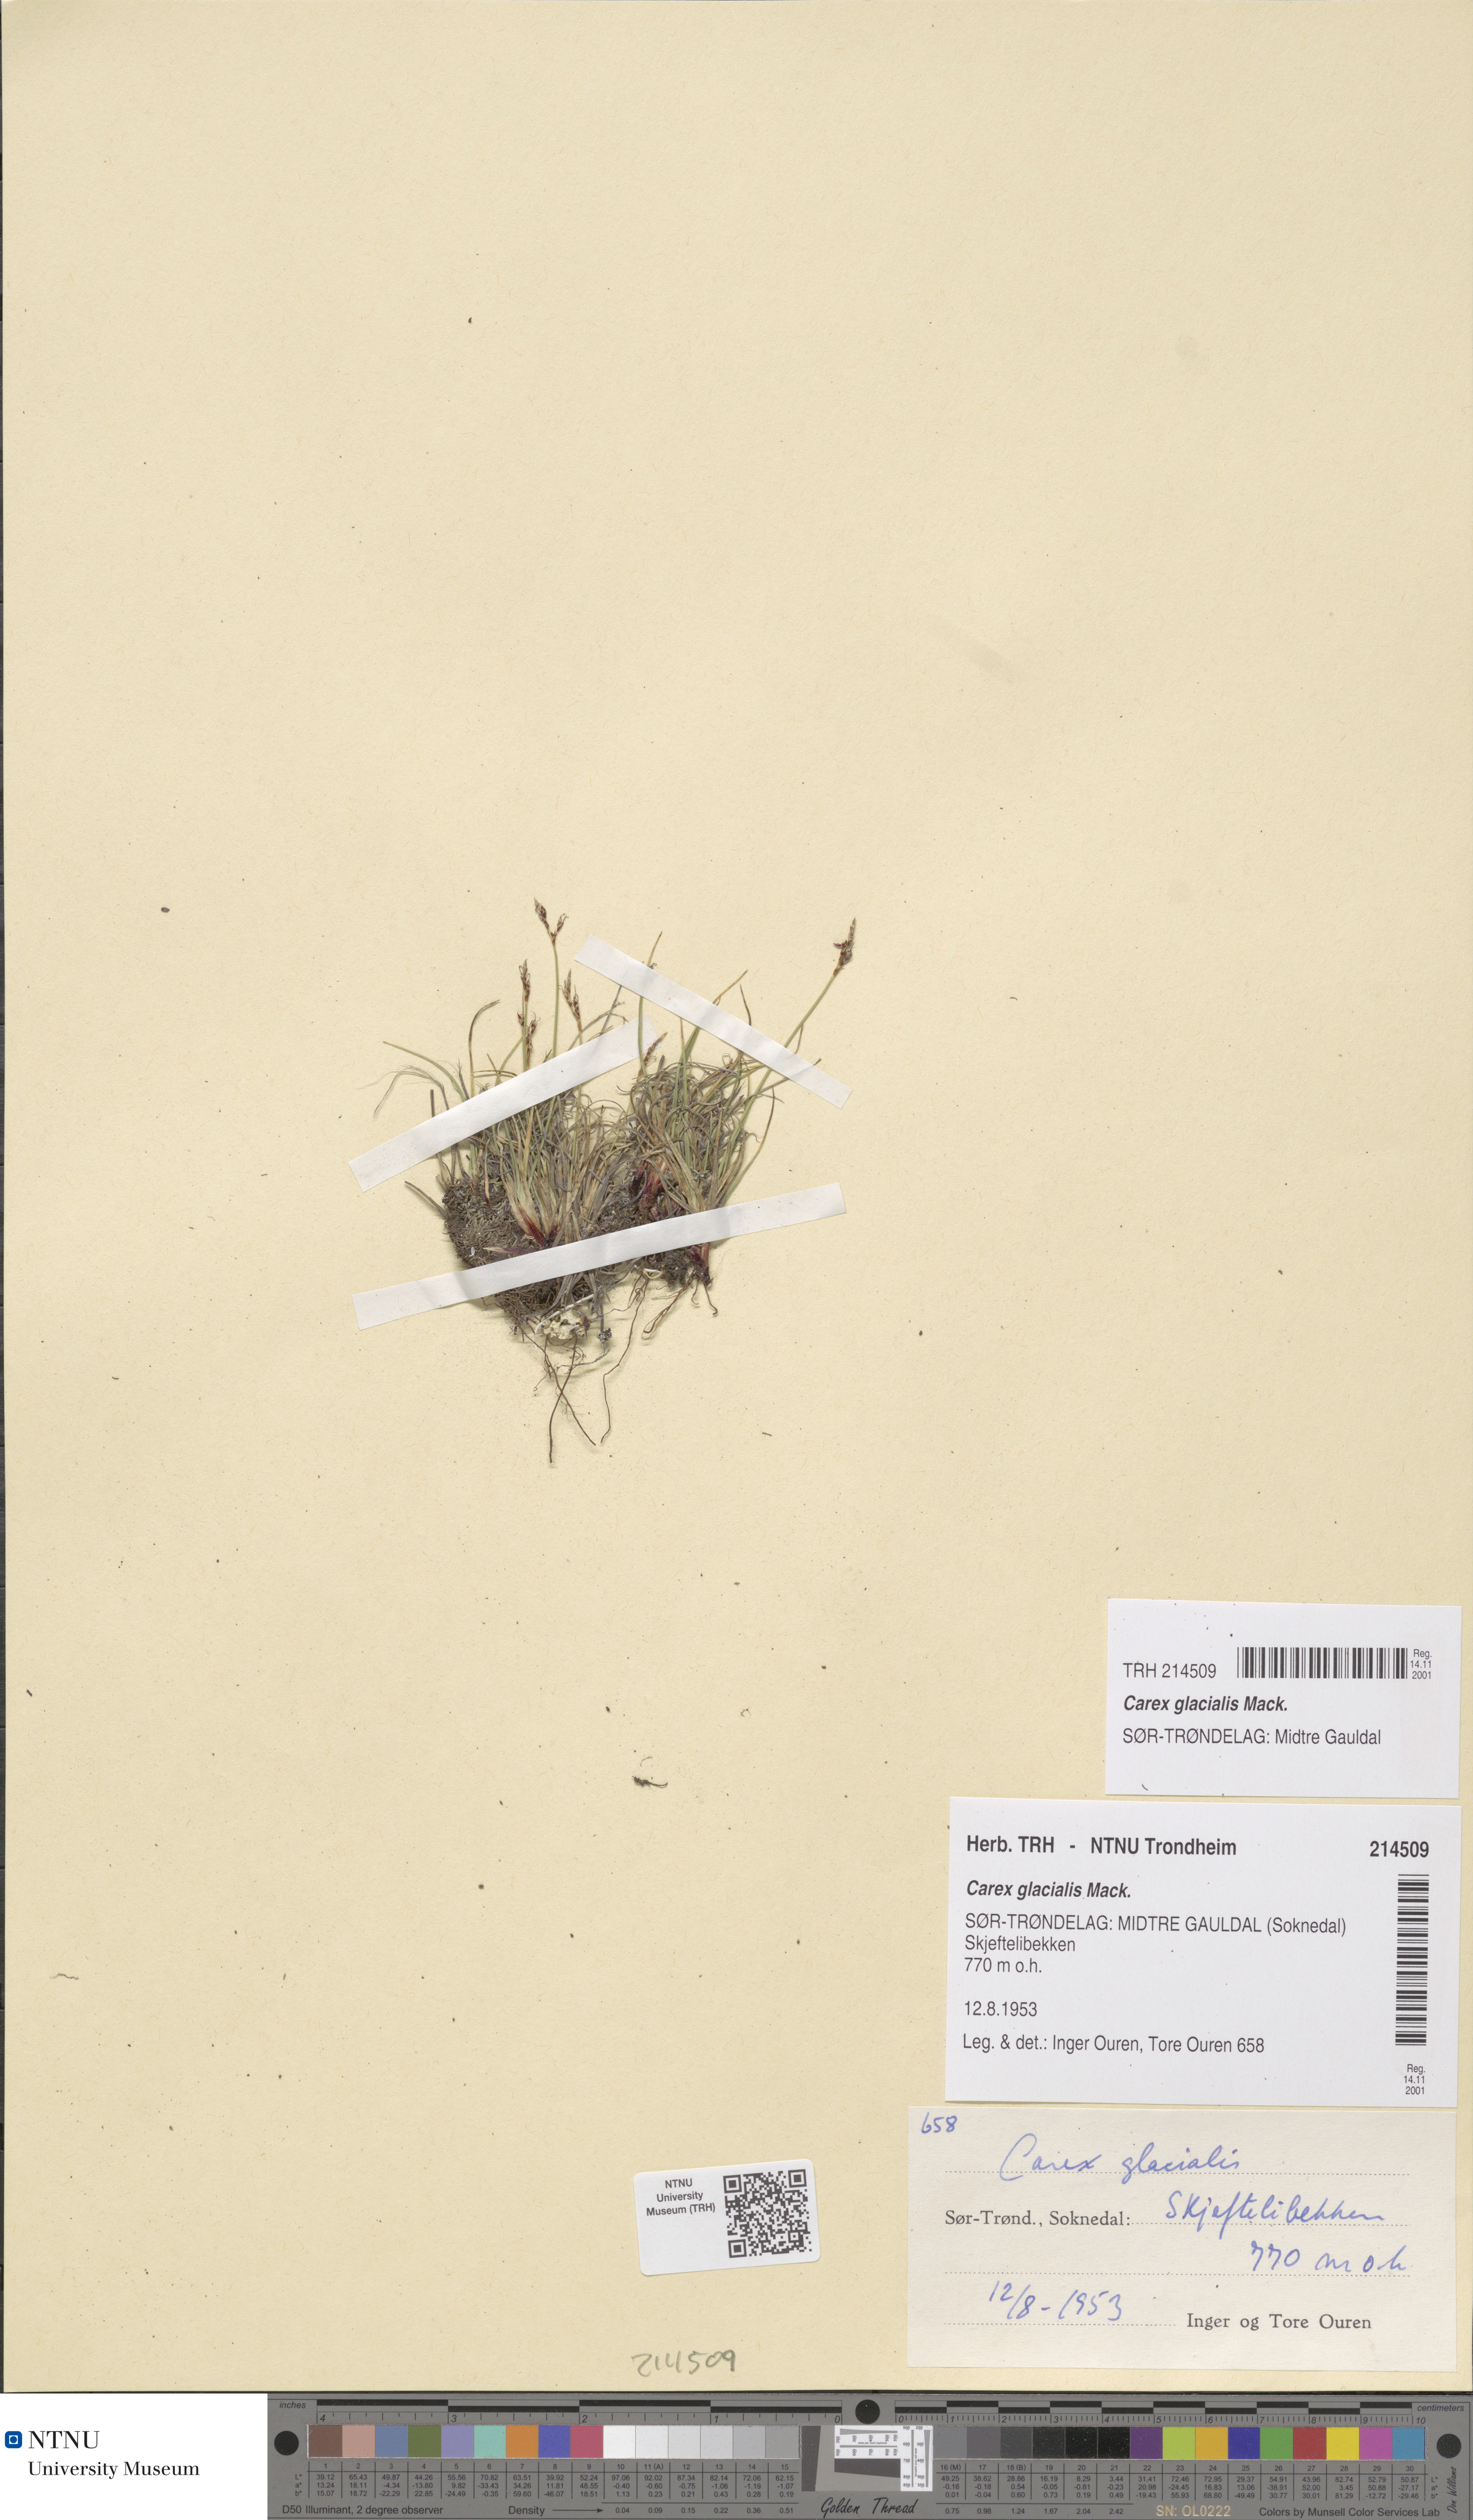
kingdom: Plantae
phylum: Tracheophyta
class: Liliopsida
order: Poales
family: Cyperaceae
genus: Carex
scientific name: Carex glacialis
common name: Newfoundland sedge
